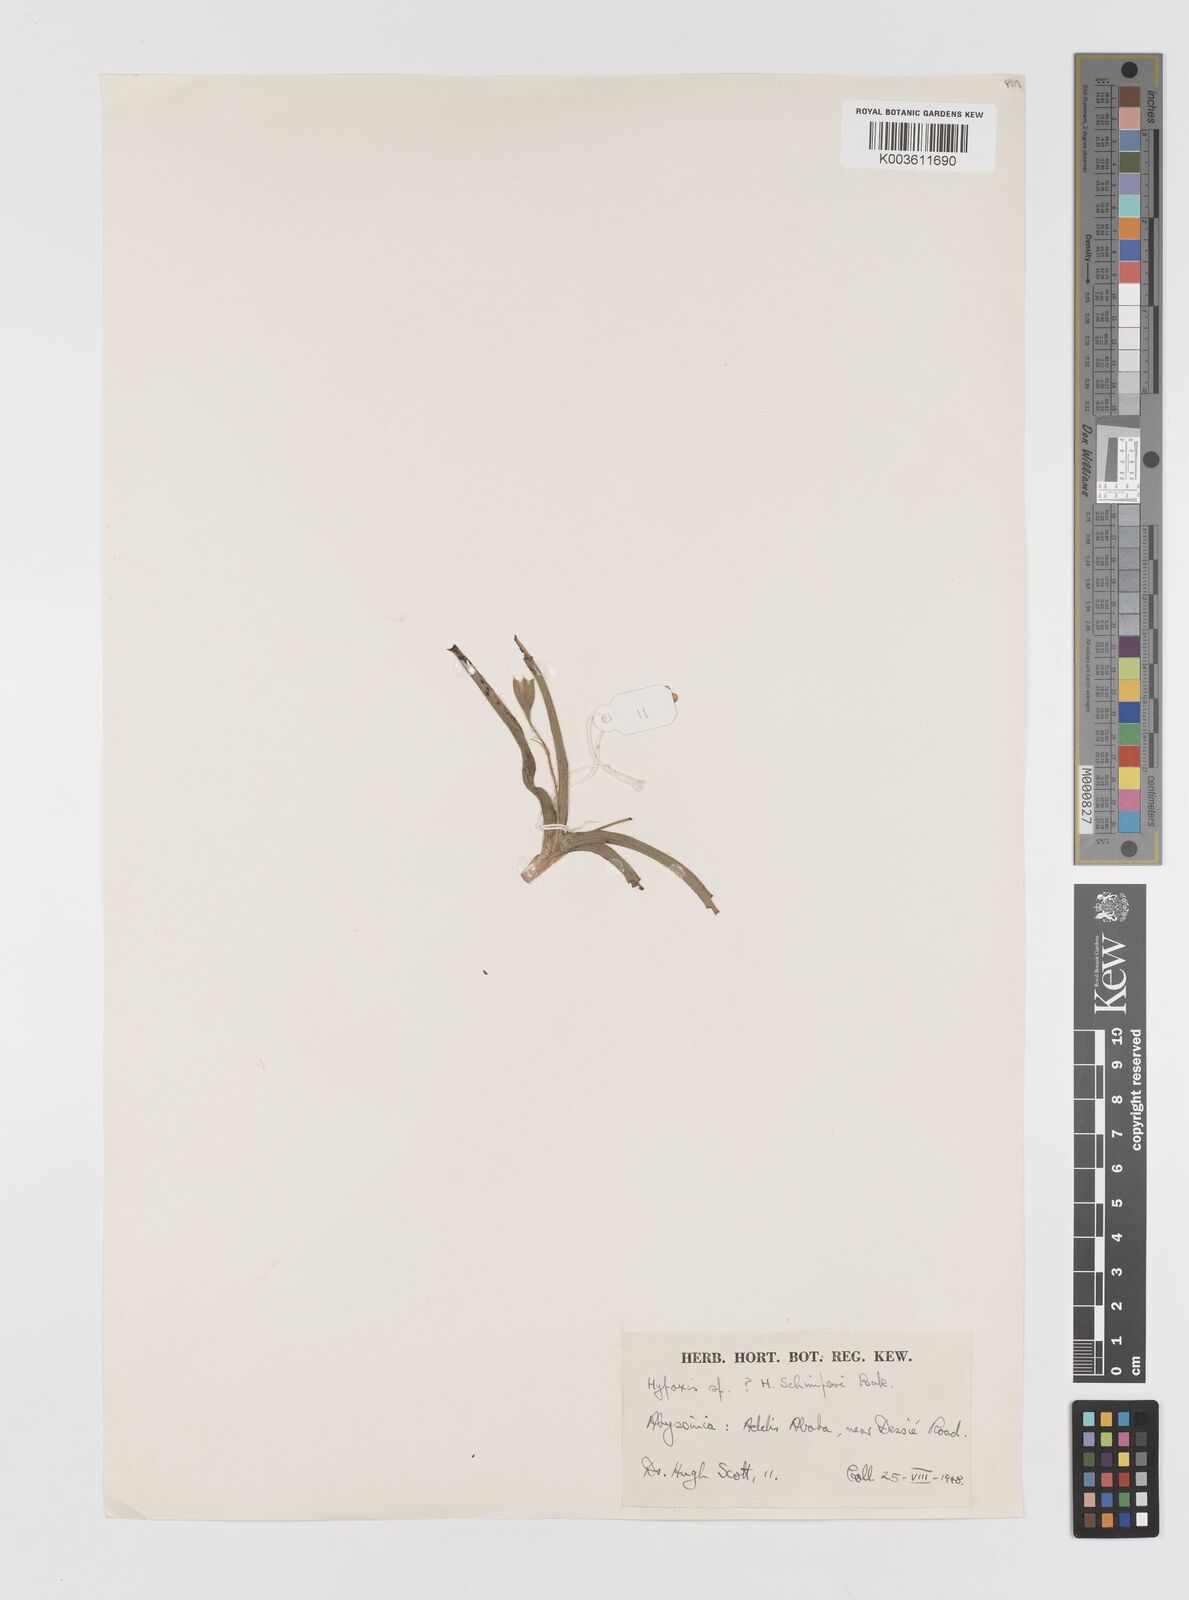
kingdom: Plantae
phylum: Tracheophyta
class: Liliopsida
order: Asparagales
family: Hypoxidaceae
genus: Hypoxis
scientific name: Hypoxis
